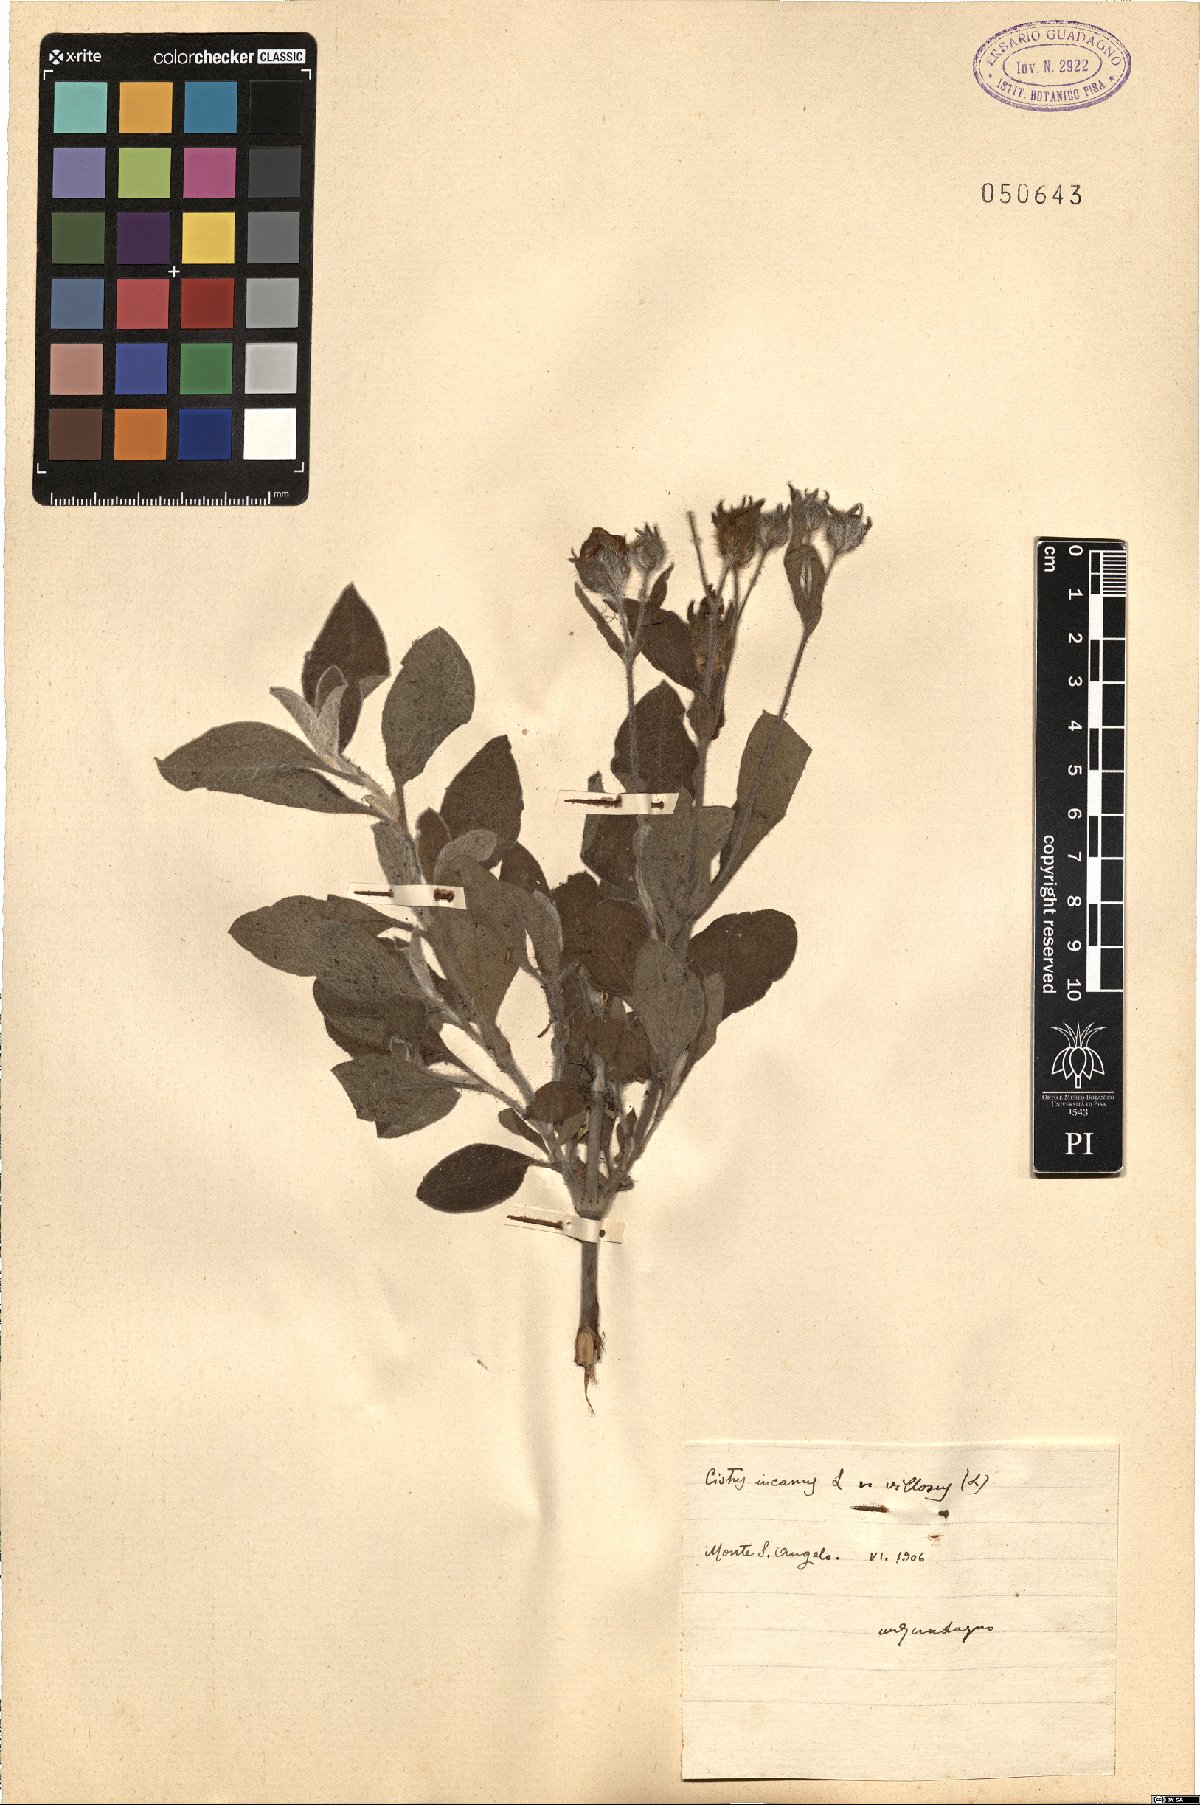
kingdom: Plantae
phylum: Tracheophyta
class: Magnoliopsida
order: Malvales
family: Cistaceae
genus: Cistus
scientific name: Cistus incanus
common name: Hairy rockrose
